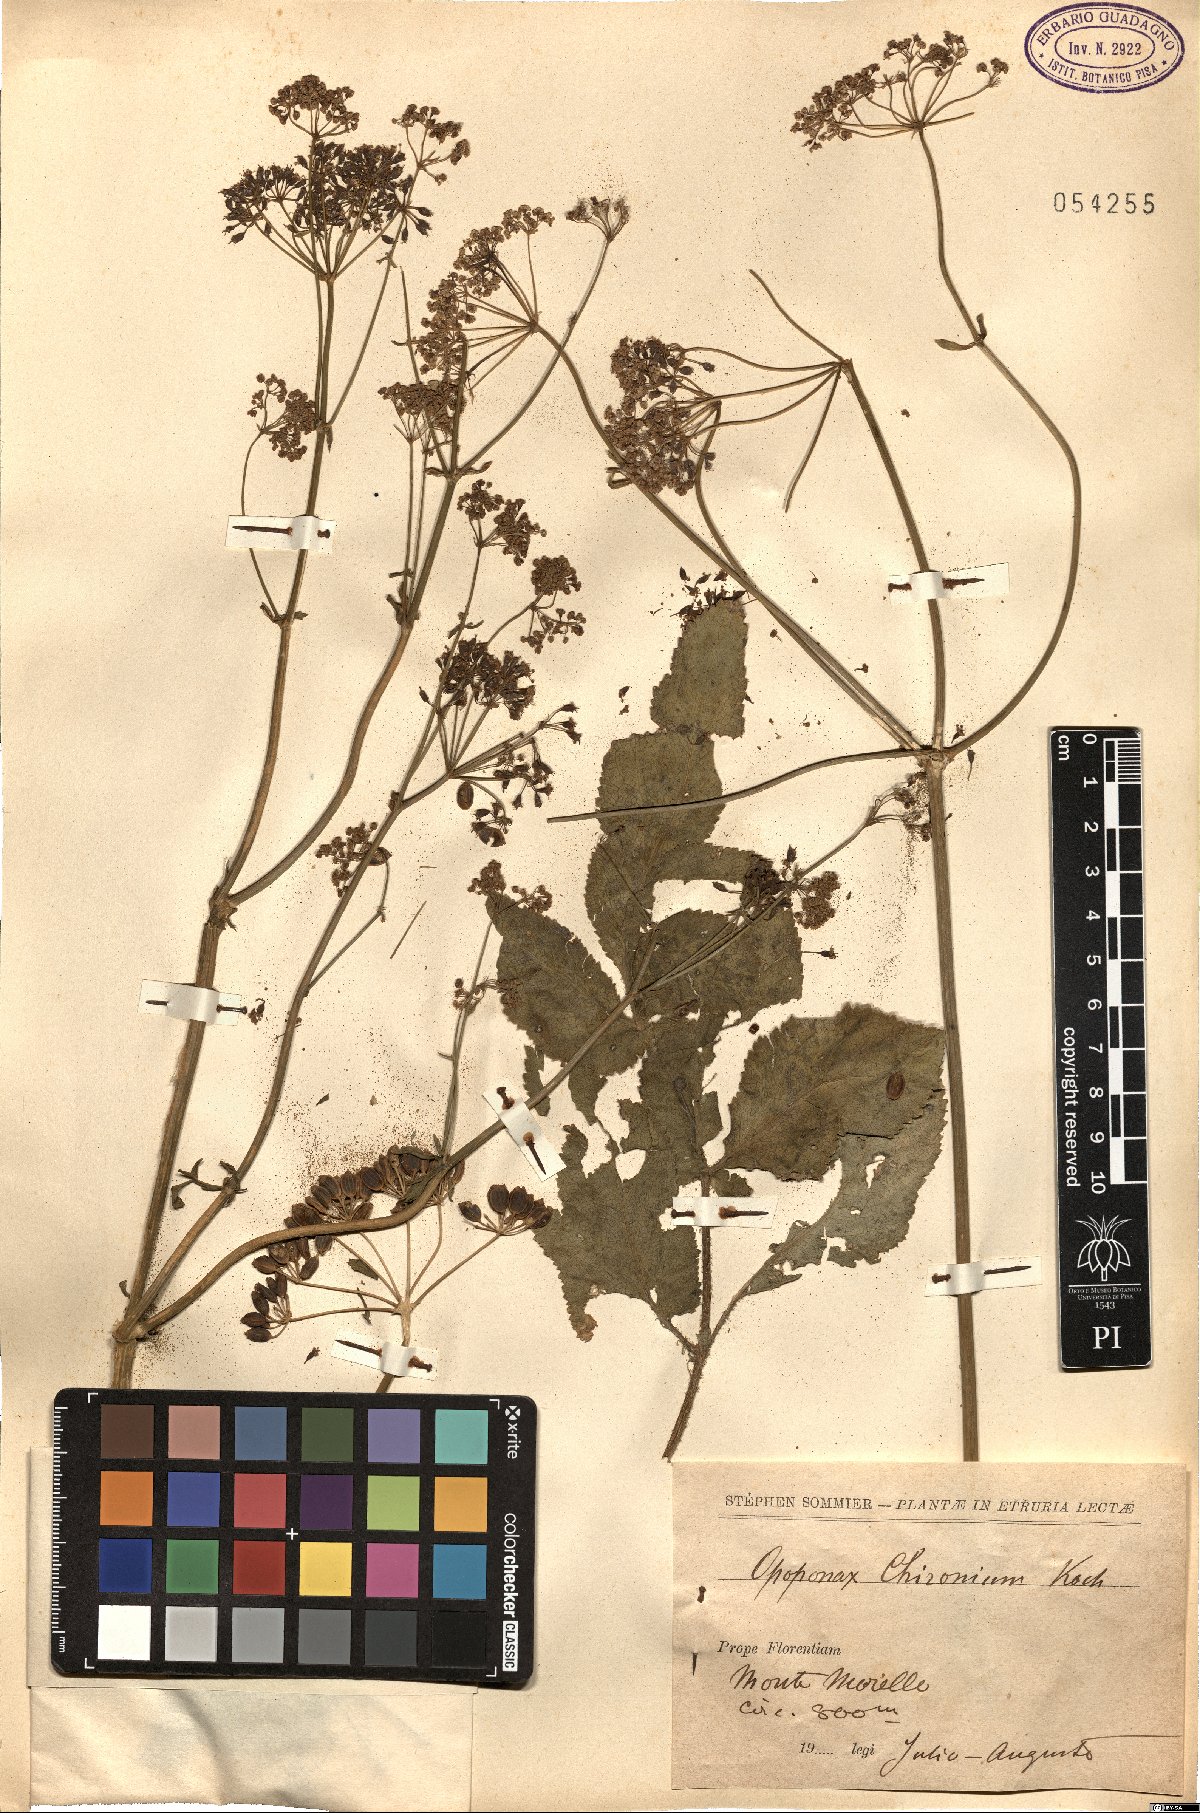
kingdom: Plantae
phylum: Tracheophyta
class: Magnoliopsida
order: Apiales
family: Apiaceae
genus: Opopanax
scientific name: Opopanax chironium
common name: Hercules-all-heal
